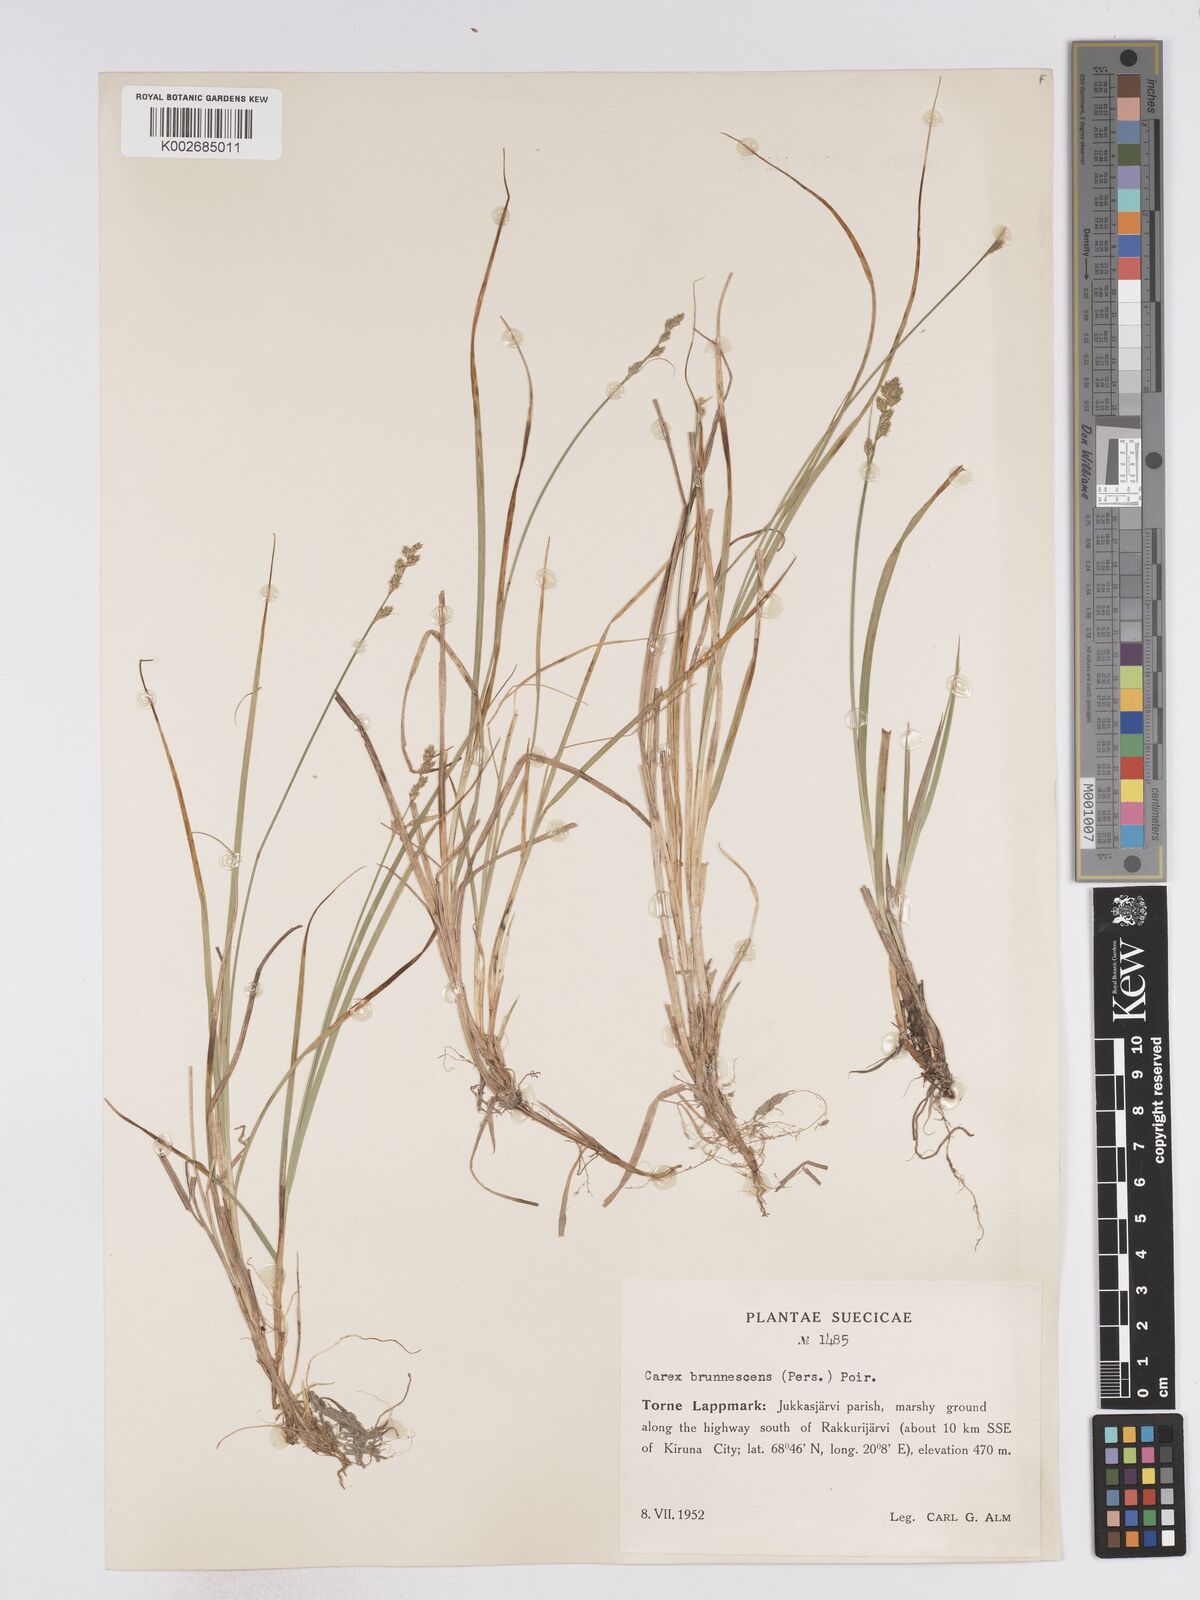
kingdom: Plantae
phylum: Tracheophyta
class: Liliopsida
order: Poales
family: Cyperaceae
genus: Carex
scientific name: Carex brunnescens
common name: Brown sedge
